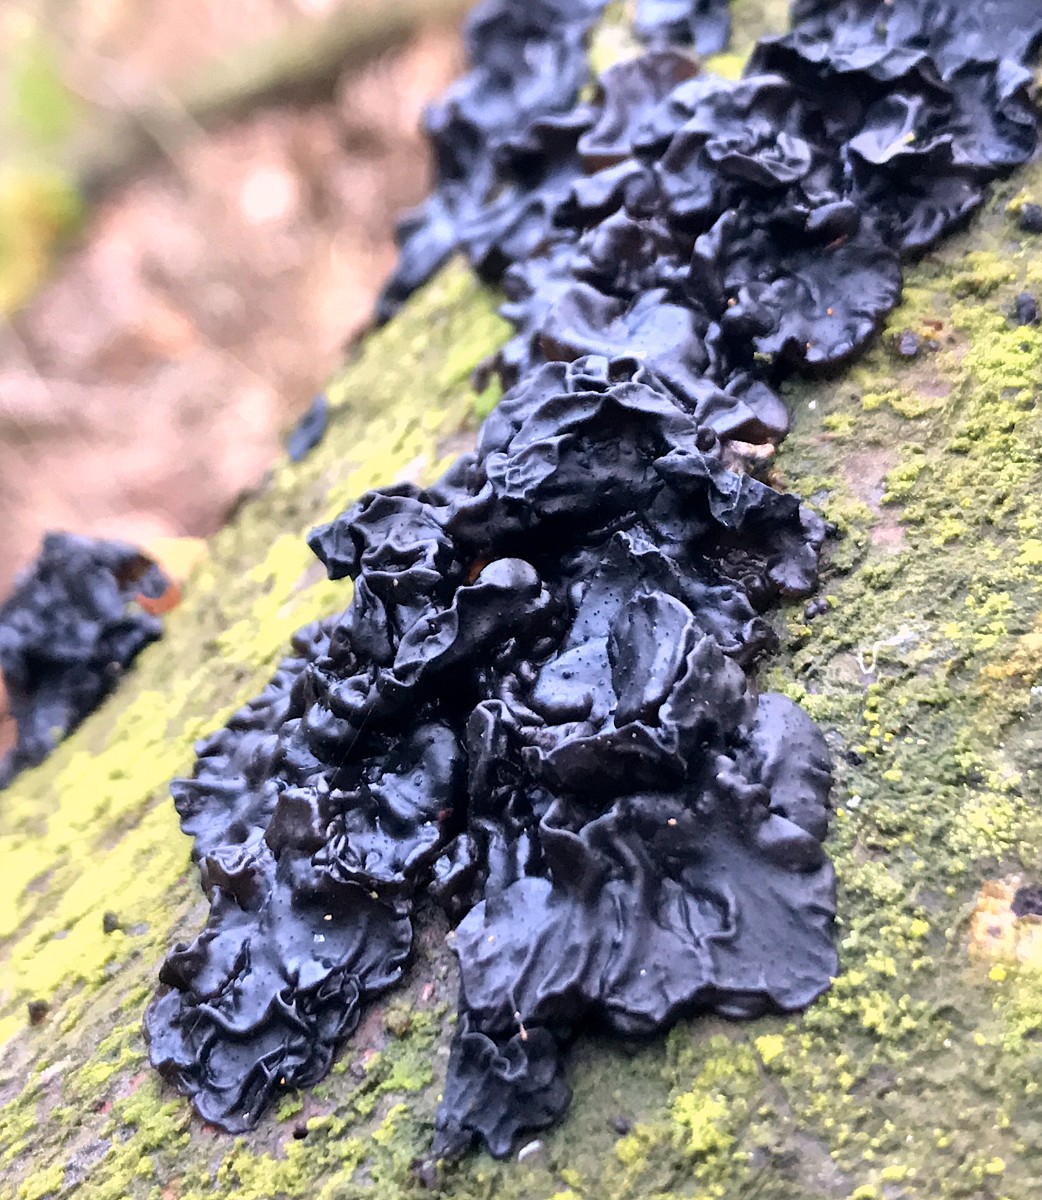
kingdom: Fungi
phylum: Basidiomycota
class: Agaricomycetes
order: Auriculariales
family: Auriculariaceae
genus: Exidia
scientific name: Exidia nigricans
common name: almindelig bævretop
